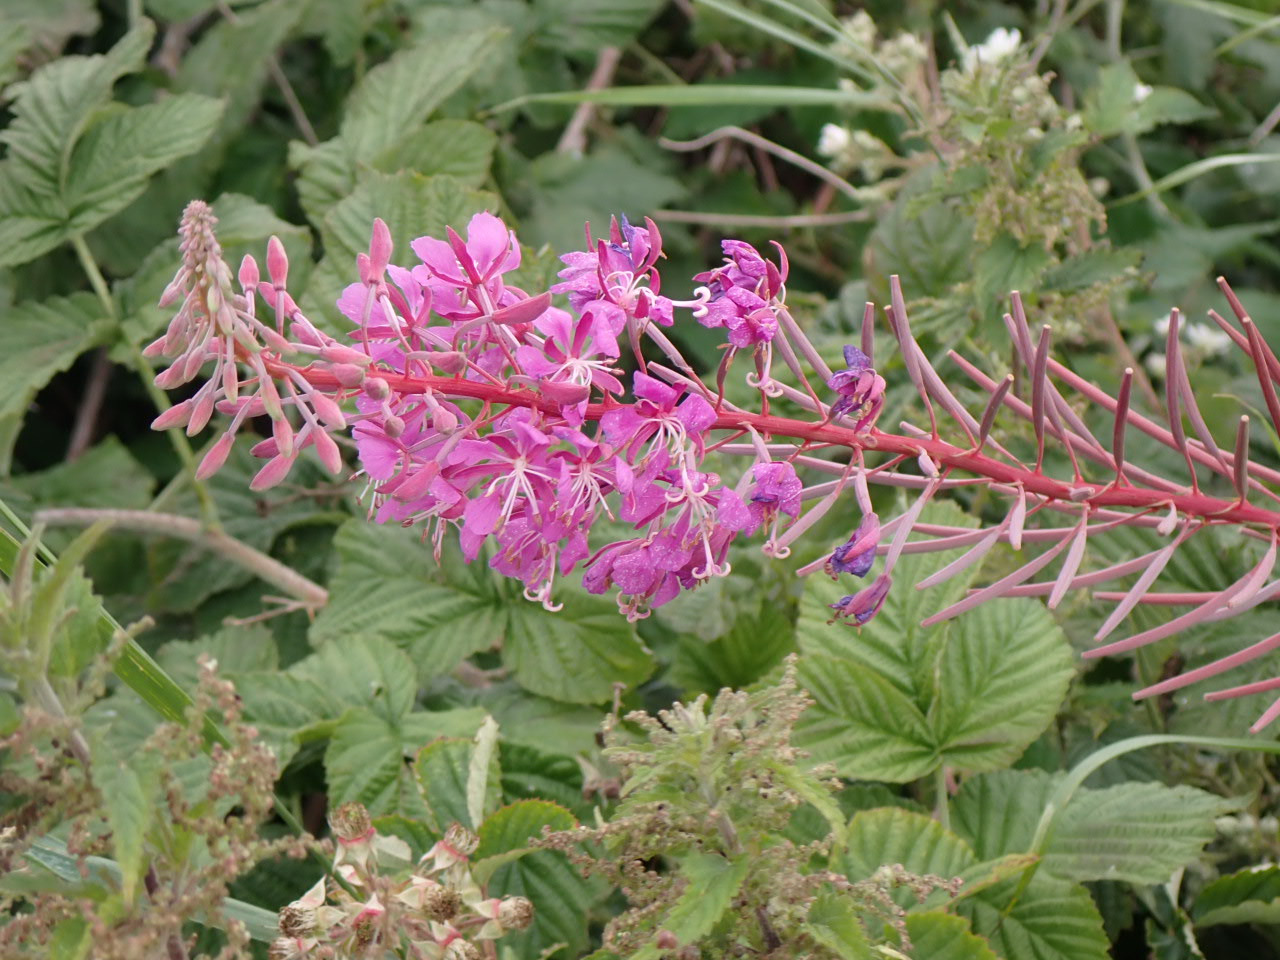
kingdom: Plantae
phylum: Tracheophyta
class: Magnoliopsida
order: Myrtales
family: Onagraceae
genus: Chamaenerion
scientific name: Chamaenerion angustifolium
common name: Gederams
